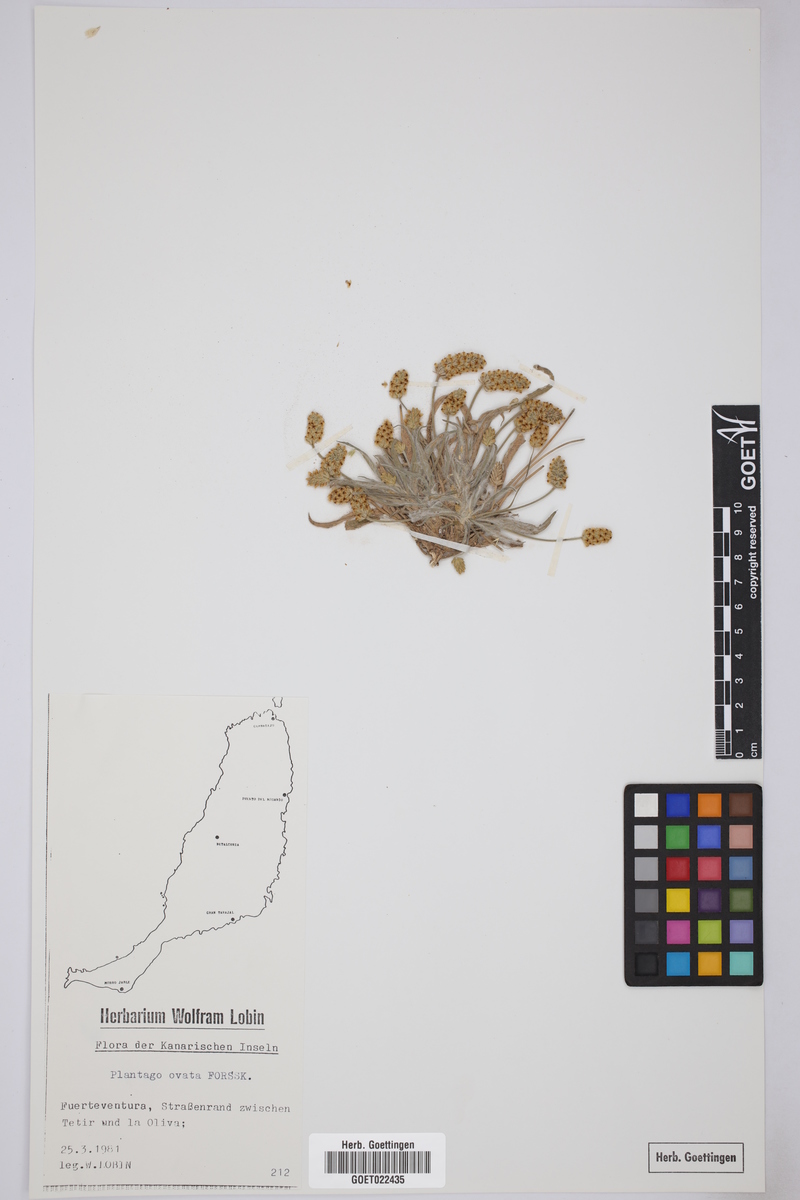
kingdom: Plantae
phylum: Tracheophyta
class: Magnoliopsida
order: Lamiales
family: Plantaginaceae
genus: Plantago
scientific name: Plantago ovata
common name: Blond plantain
